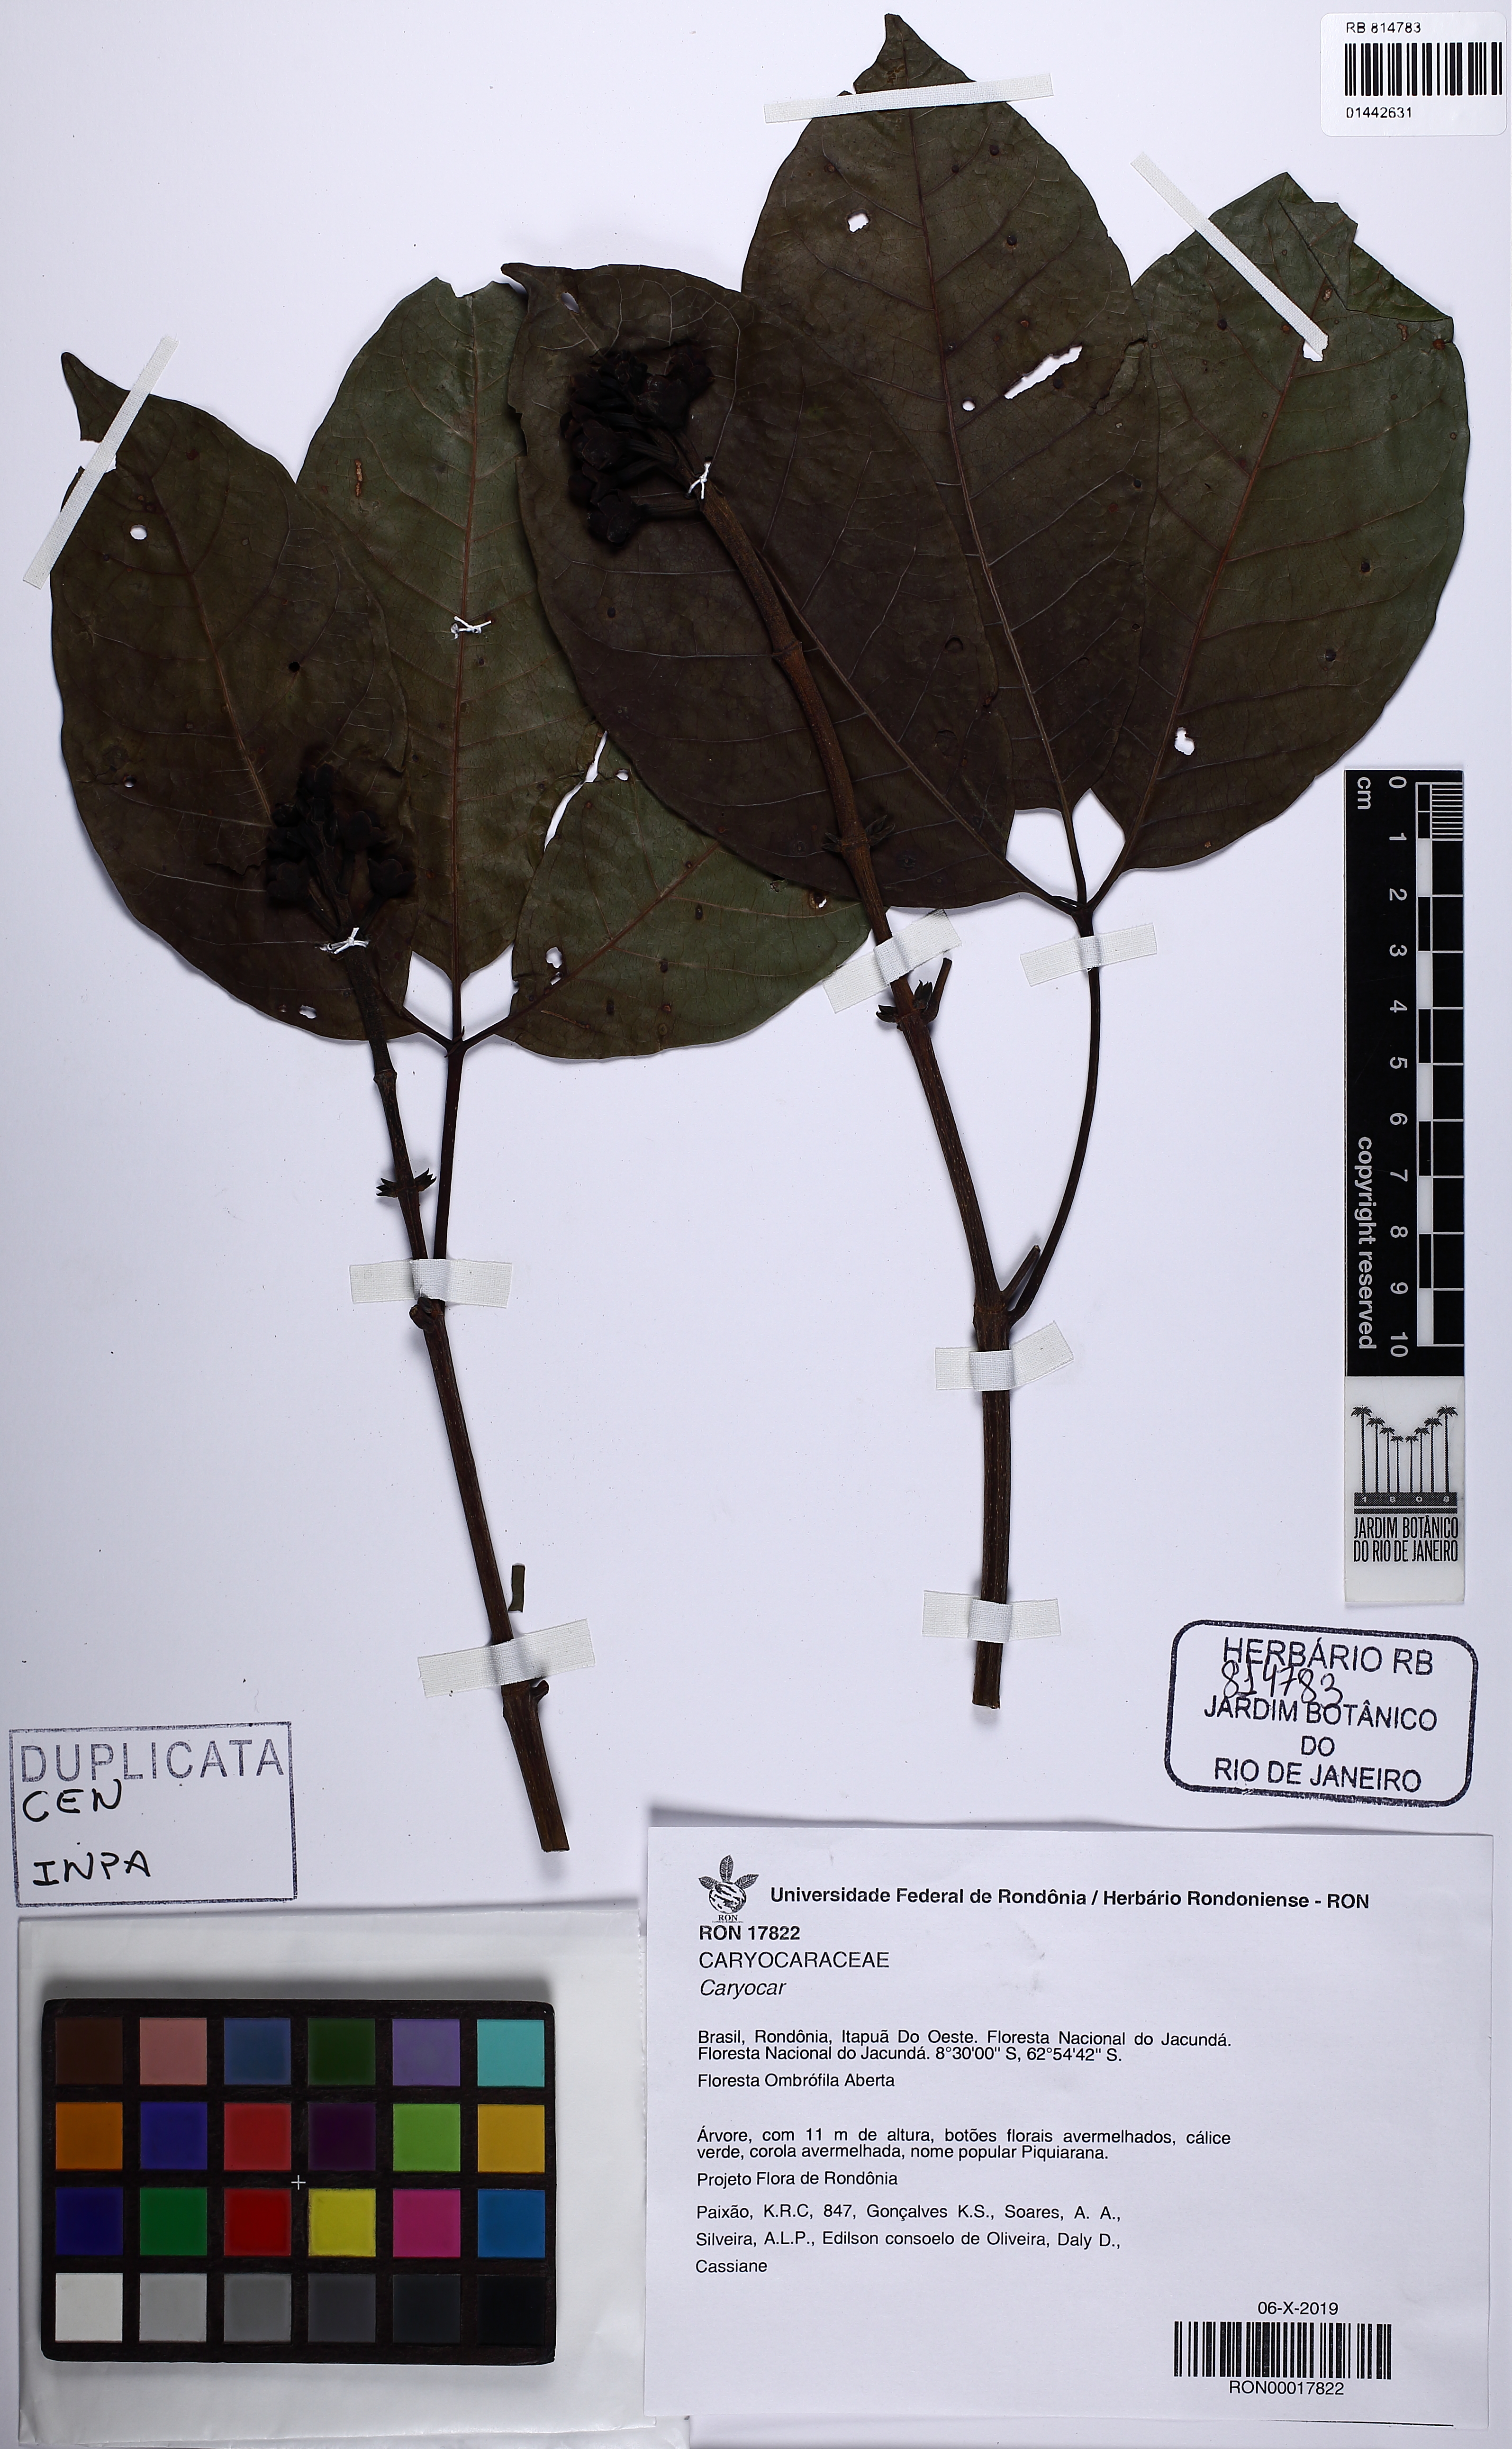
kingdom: Plantae
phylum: Tracheophyta
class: Magnoliopsida
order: Malpighiales
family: Caryocaraceae
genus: Caryocar
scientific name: Caryocar
